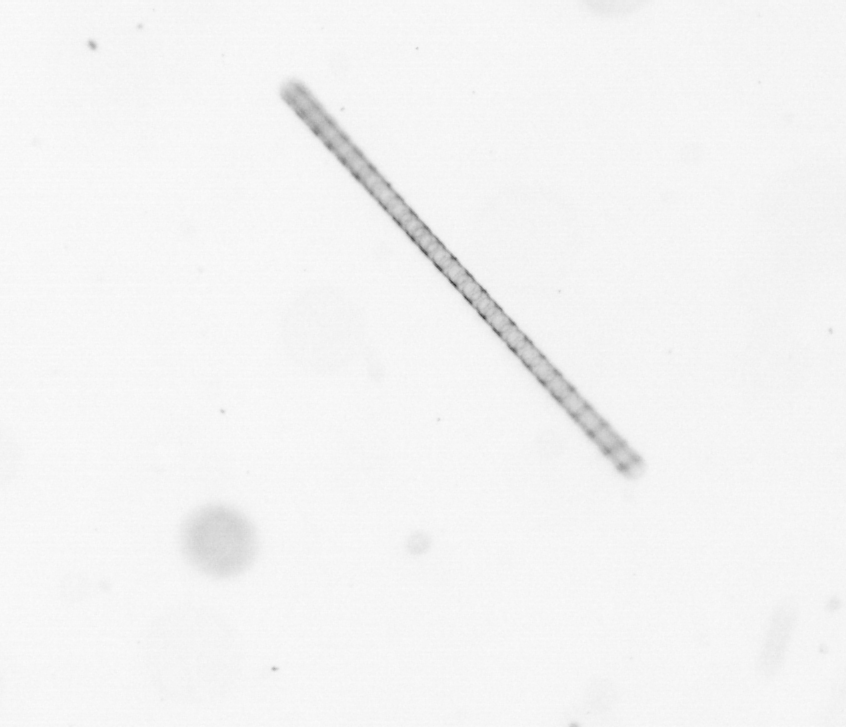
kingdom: Chromista
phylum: Ochrophyta
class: Bacillariophyceae
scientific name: Bacillariophyceae
